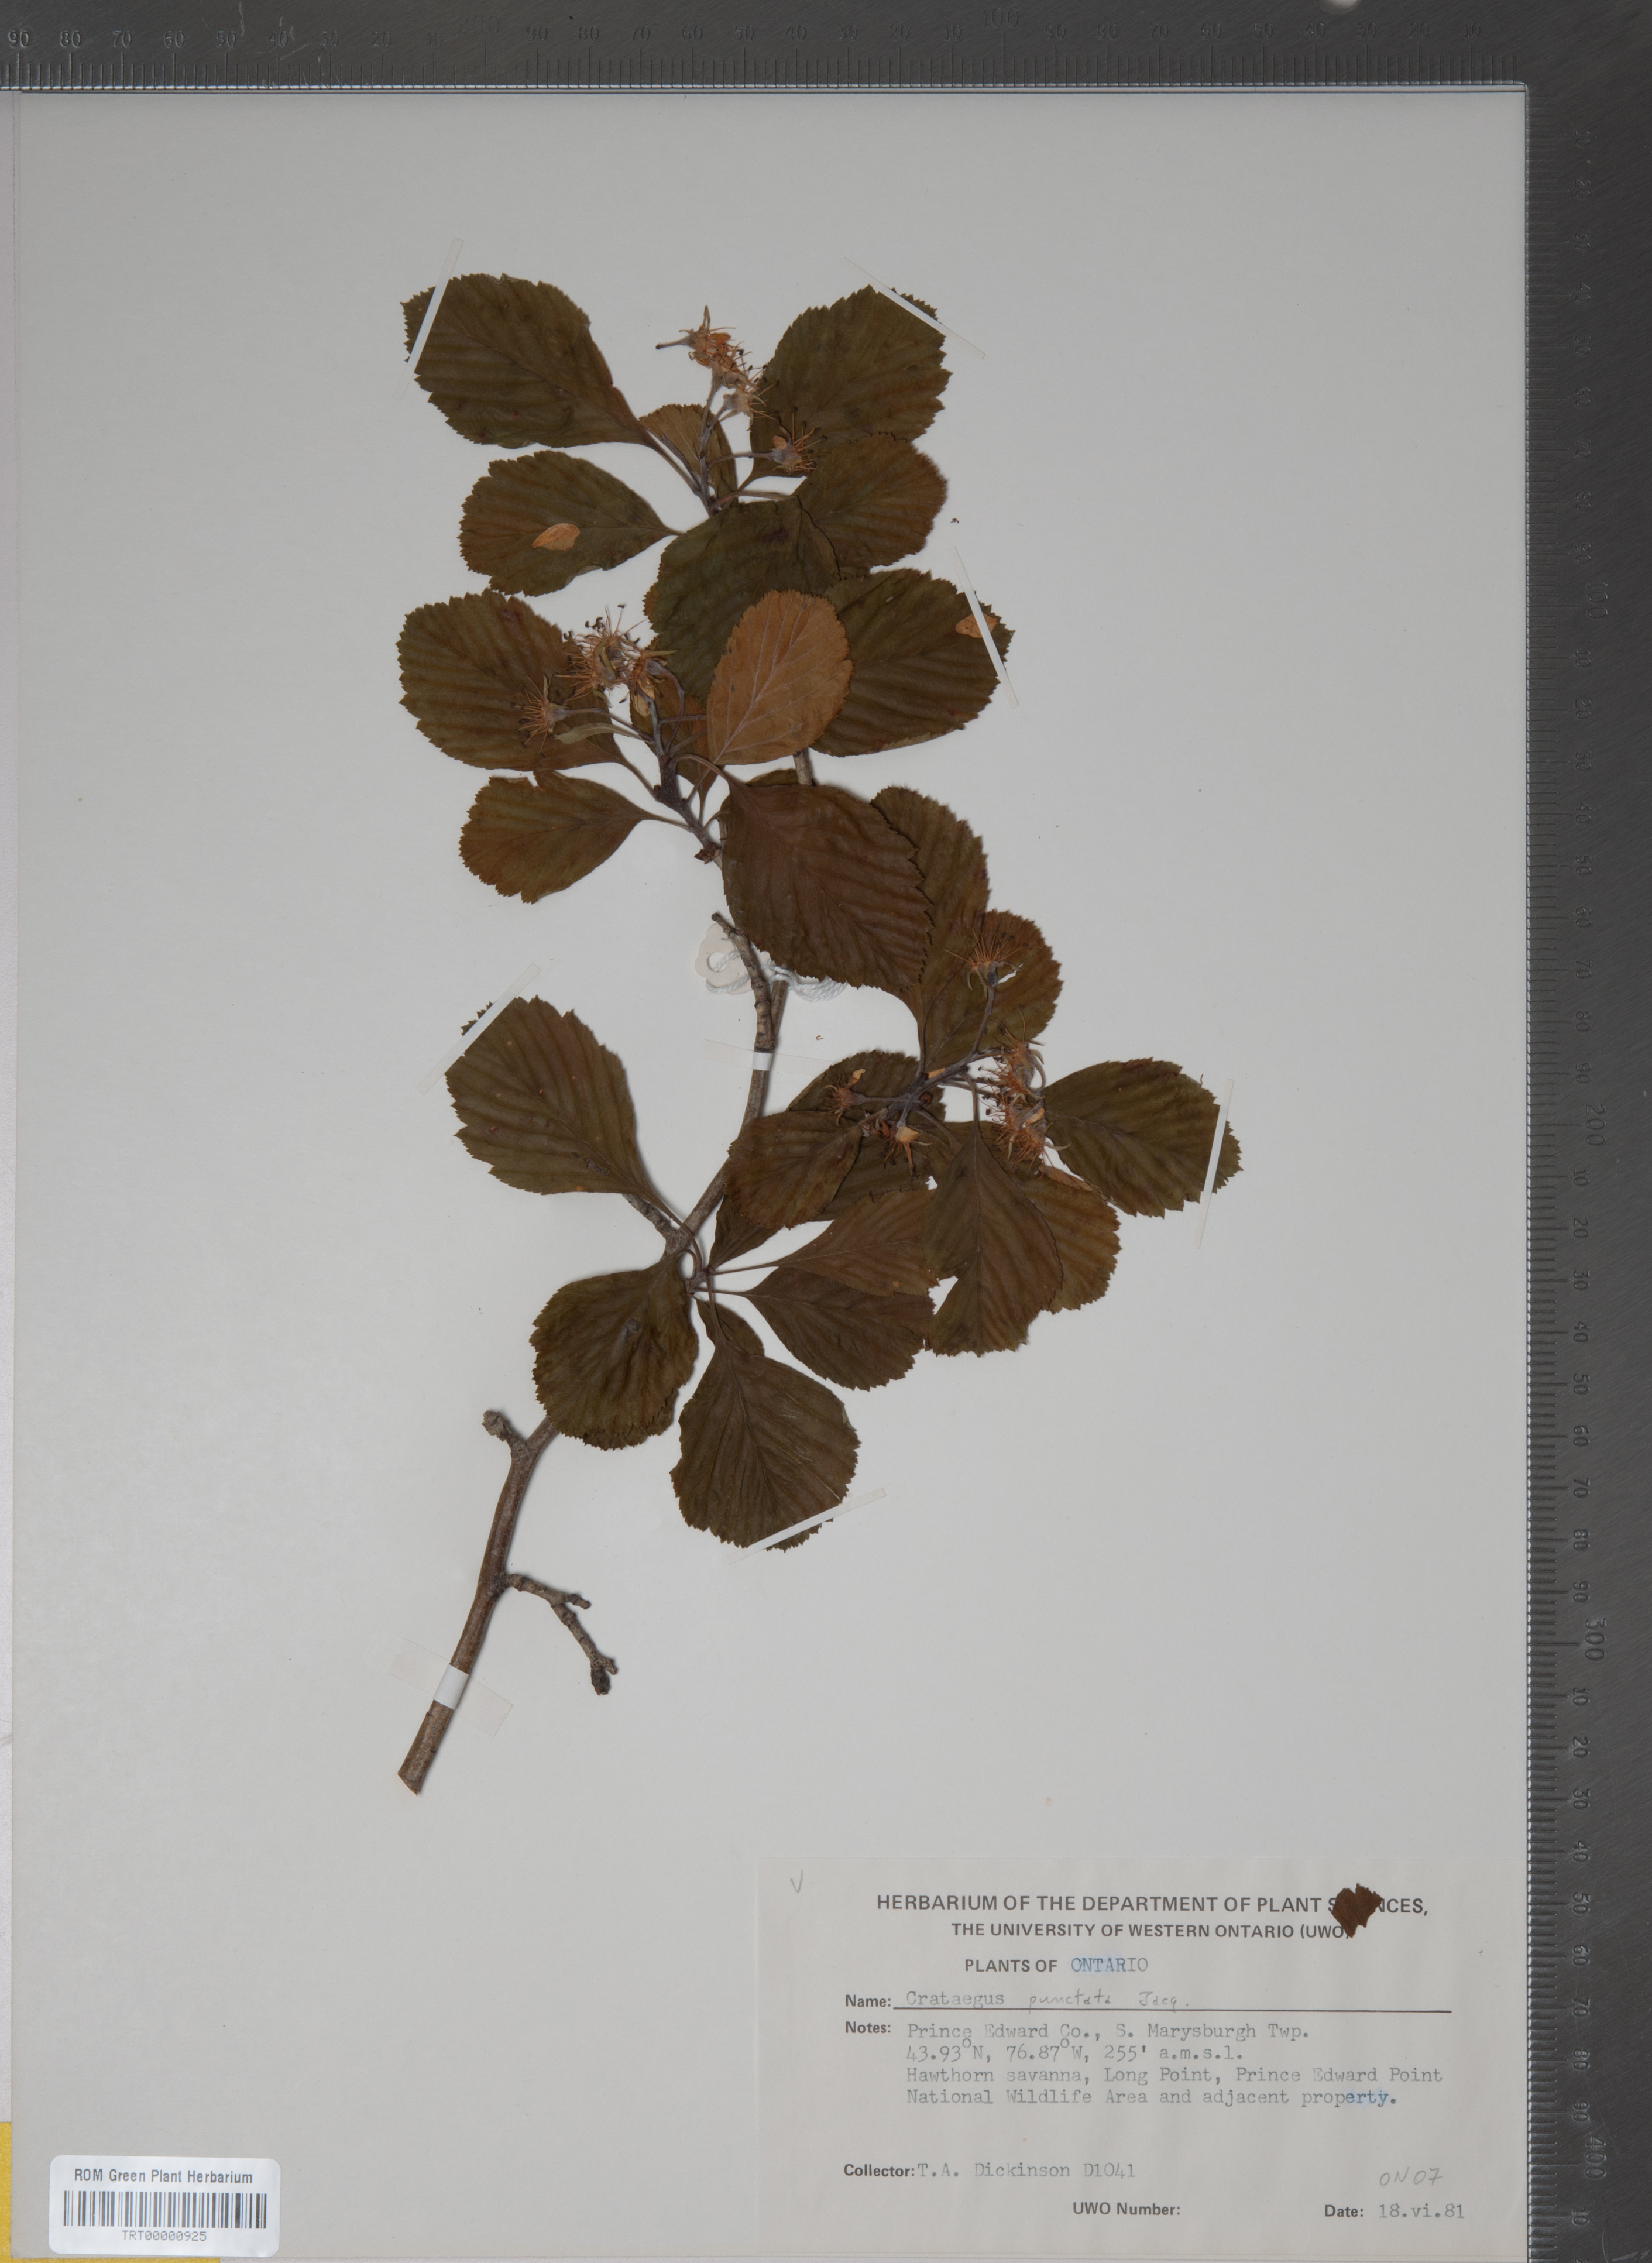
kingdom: Plantae
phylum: Tracheophyta
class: Magnoliopsida
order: Rosales
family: Rosaceae
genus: Crataegus
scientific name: Crataegus punctata
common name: Dotted hawthorn
